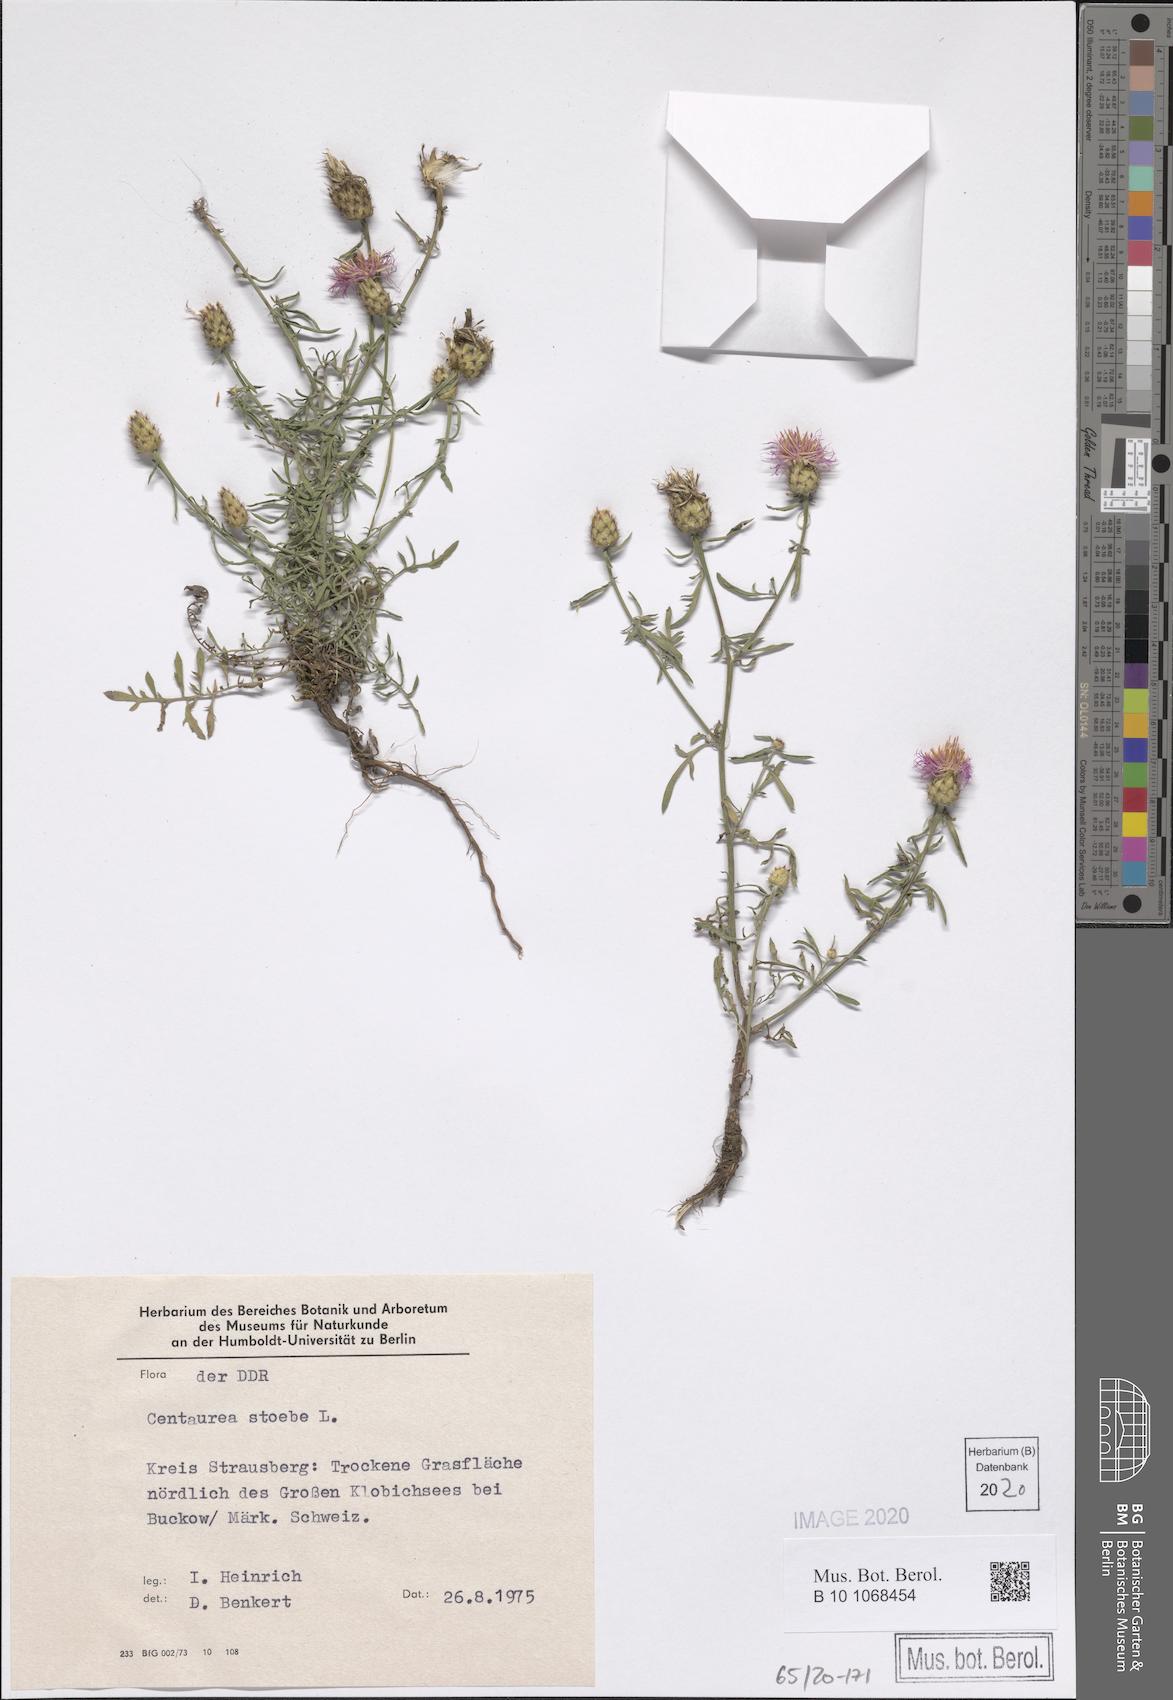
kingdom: Plantae
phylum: Tracheophyta
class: Magnoliopsida
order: Asterales
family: Asteraceae
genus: Centaurea
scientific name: Centaurea stoebe
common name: Spotted knapweed
